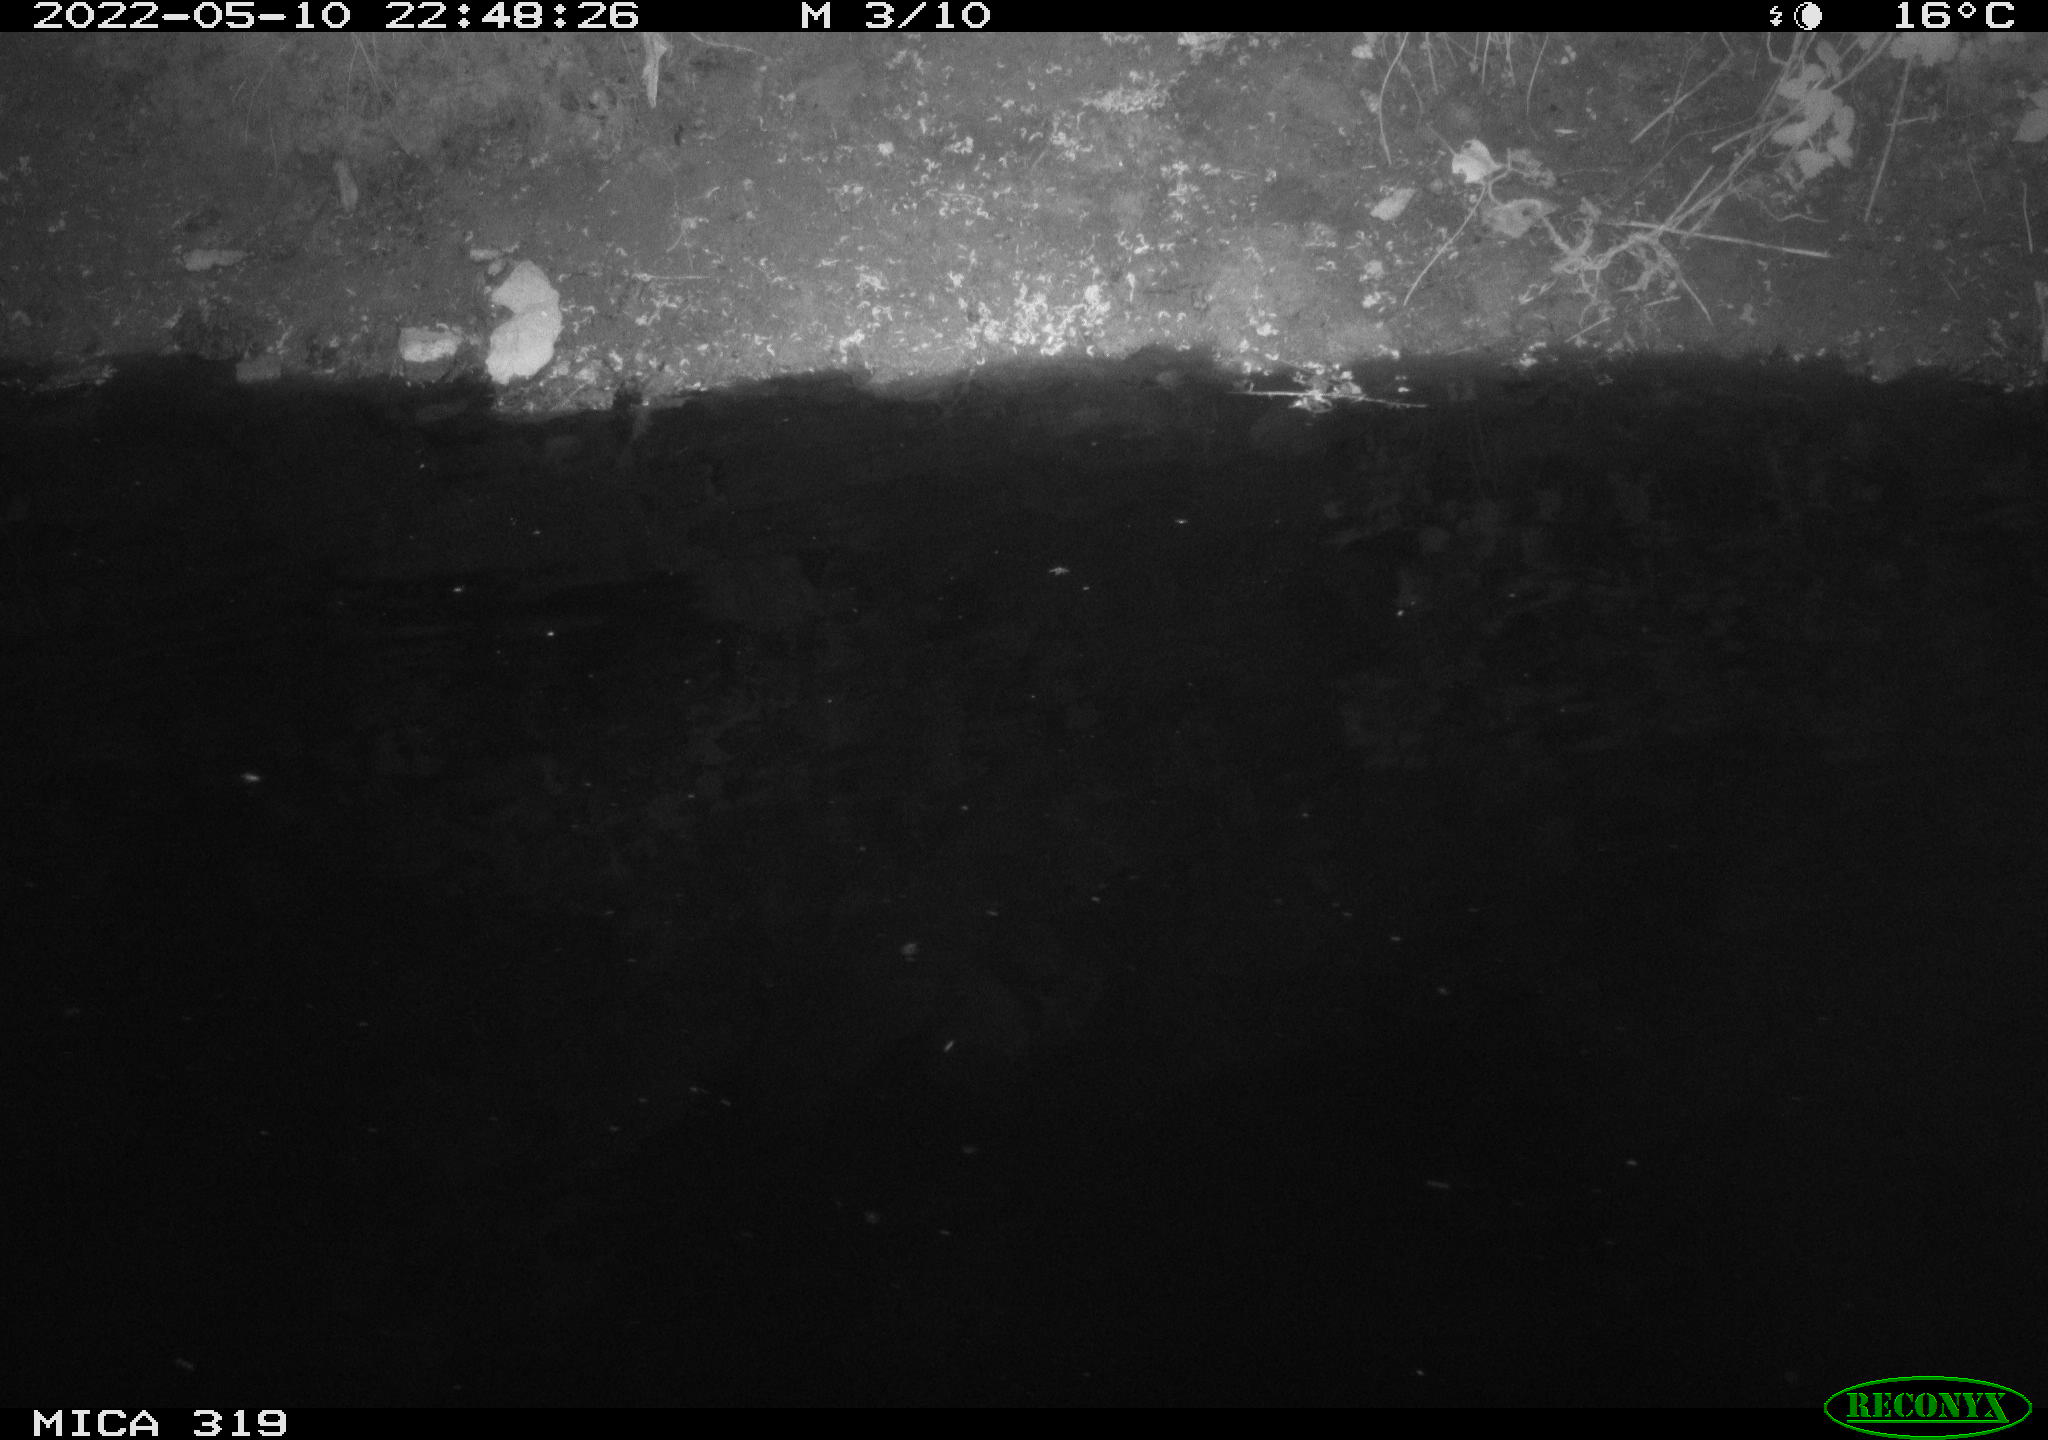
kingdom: Animalia
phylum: Chordata
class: Aves
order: Anseriformes
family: Anatidae
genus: Anas
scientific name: Anas
